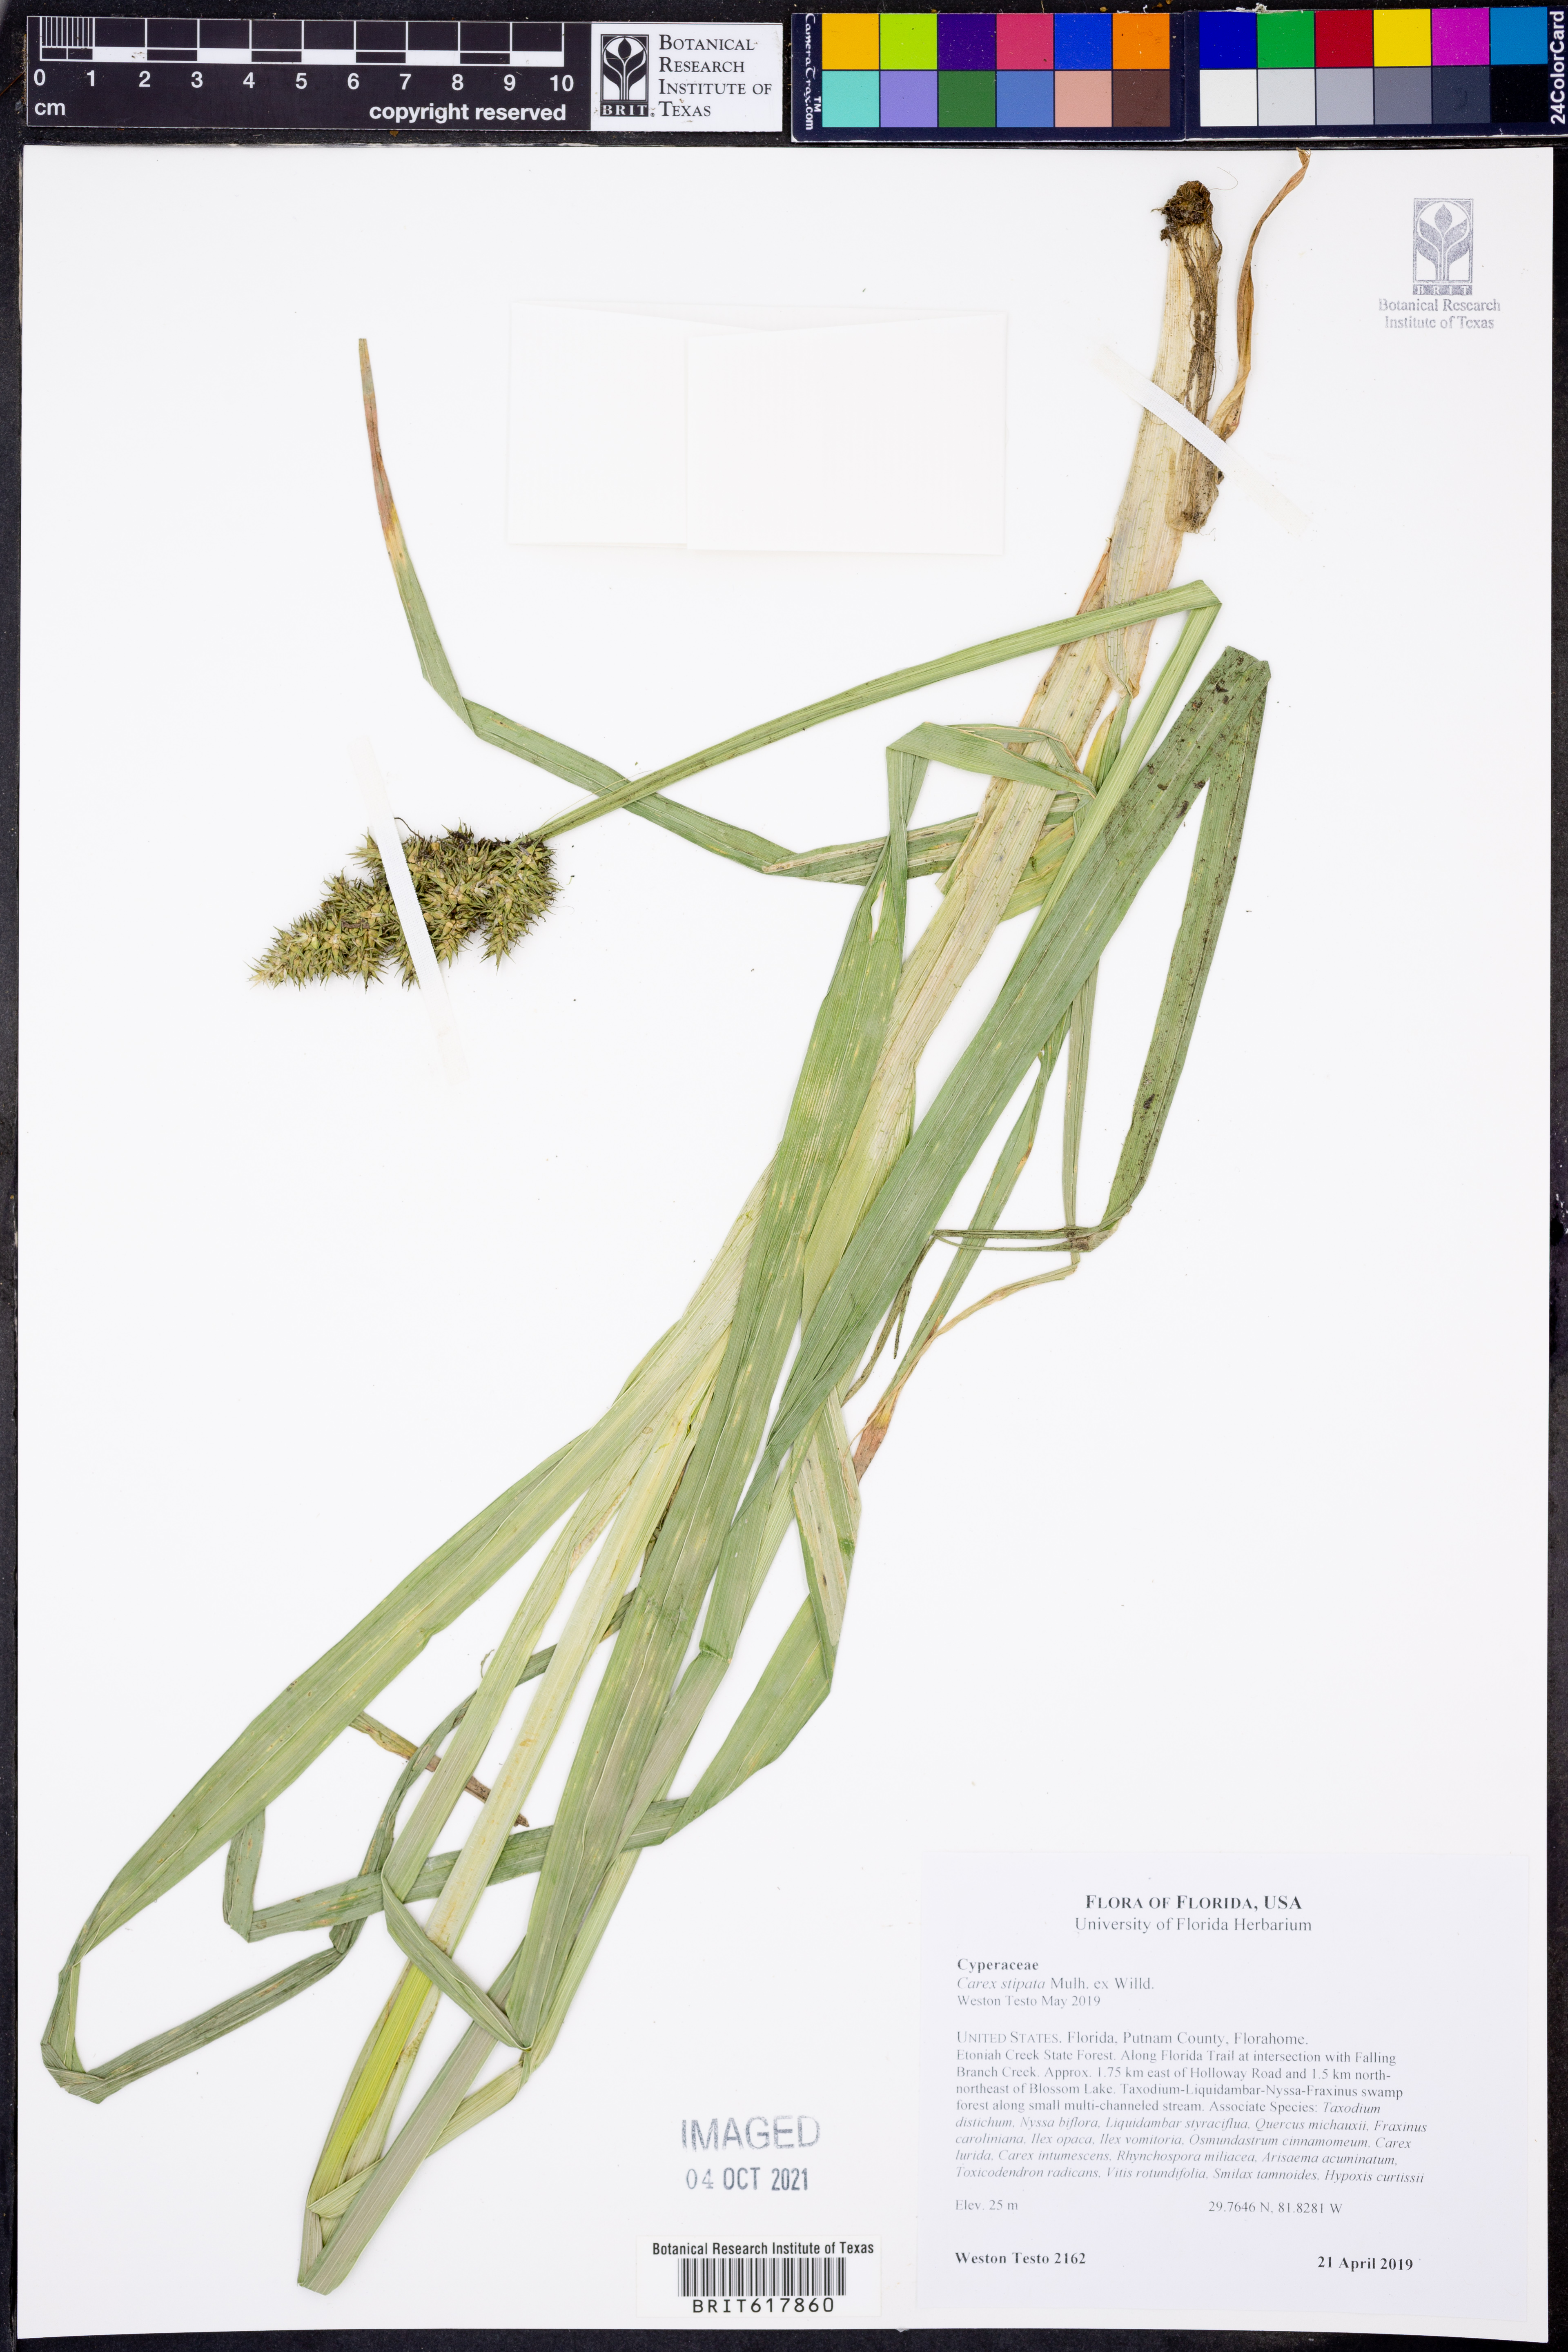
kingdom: Plantae
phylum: Tracheophyta
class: Liliopsida
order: Poales
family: Cyperaceae
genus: Carex
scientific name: Carex stipata
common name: Awl-fruited sedge
